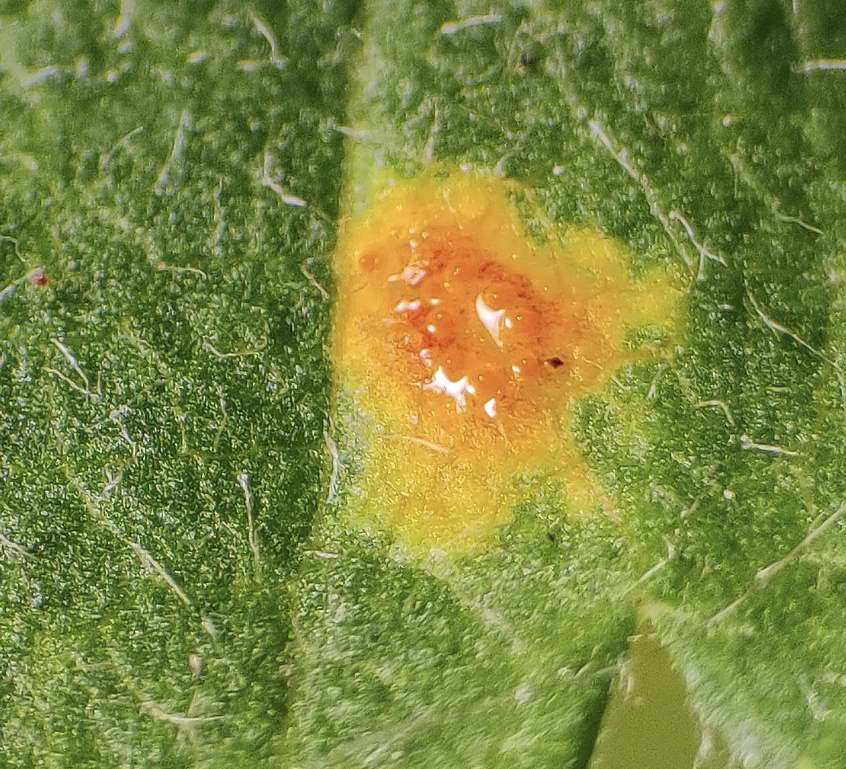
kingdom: Fungi
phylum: Basidiomycota
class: Pucciniomycetes
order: Pucciniales
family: Gymnosporangiaceae
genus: Gymnosporangium
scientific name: Gymnosporangium cornutum
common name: rønnehorn-bævrerust
